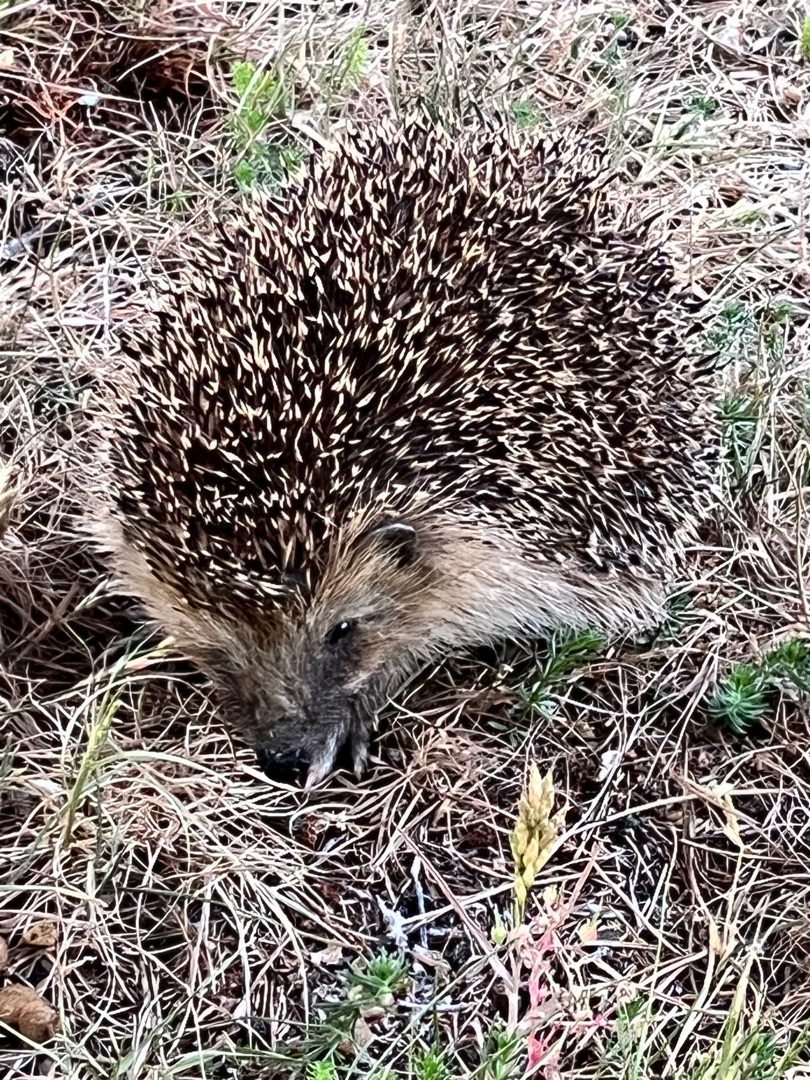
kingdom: Animalia
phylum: Chordata
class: Mammalia
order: Erinaceomorpha
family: Erinaceidae
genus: Erinaceus
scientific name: Erinaceus europaeus
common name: Pindsvin
